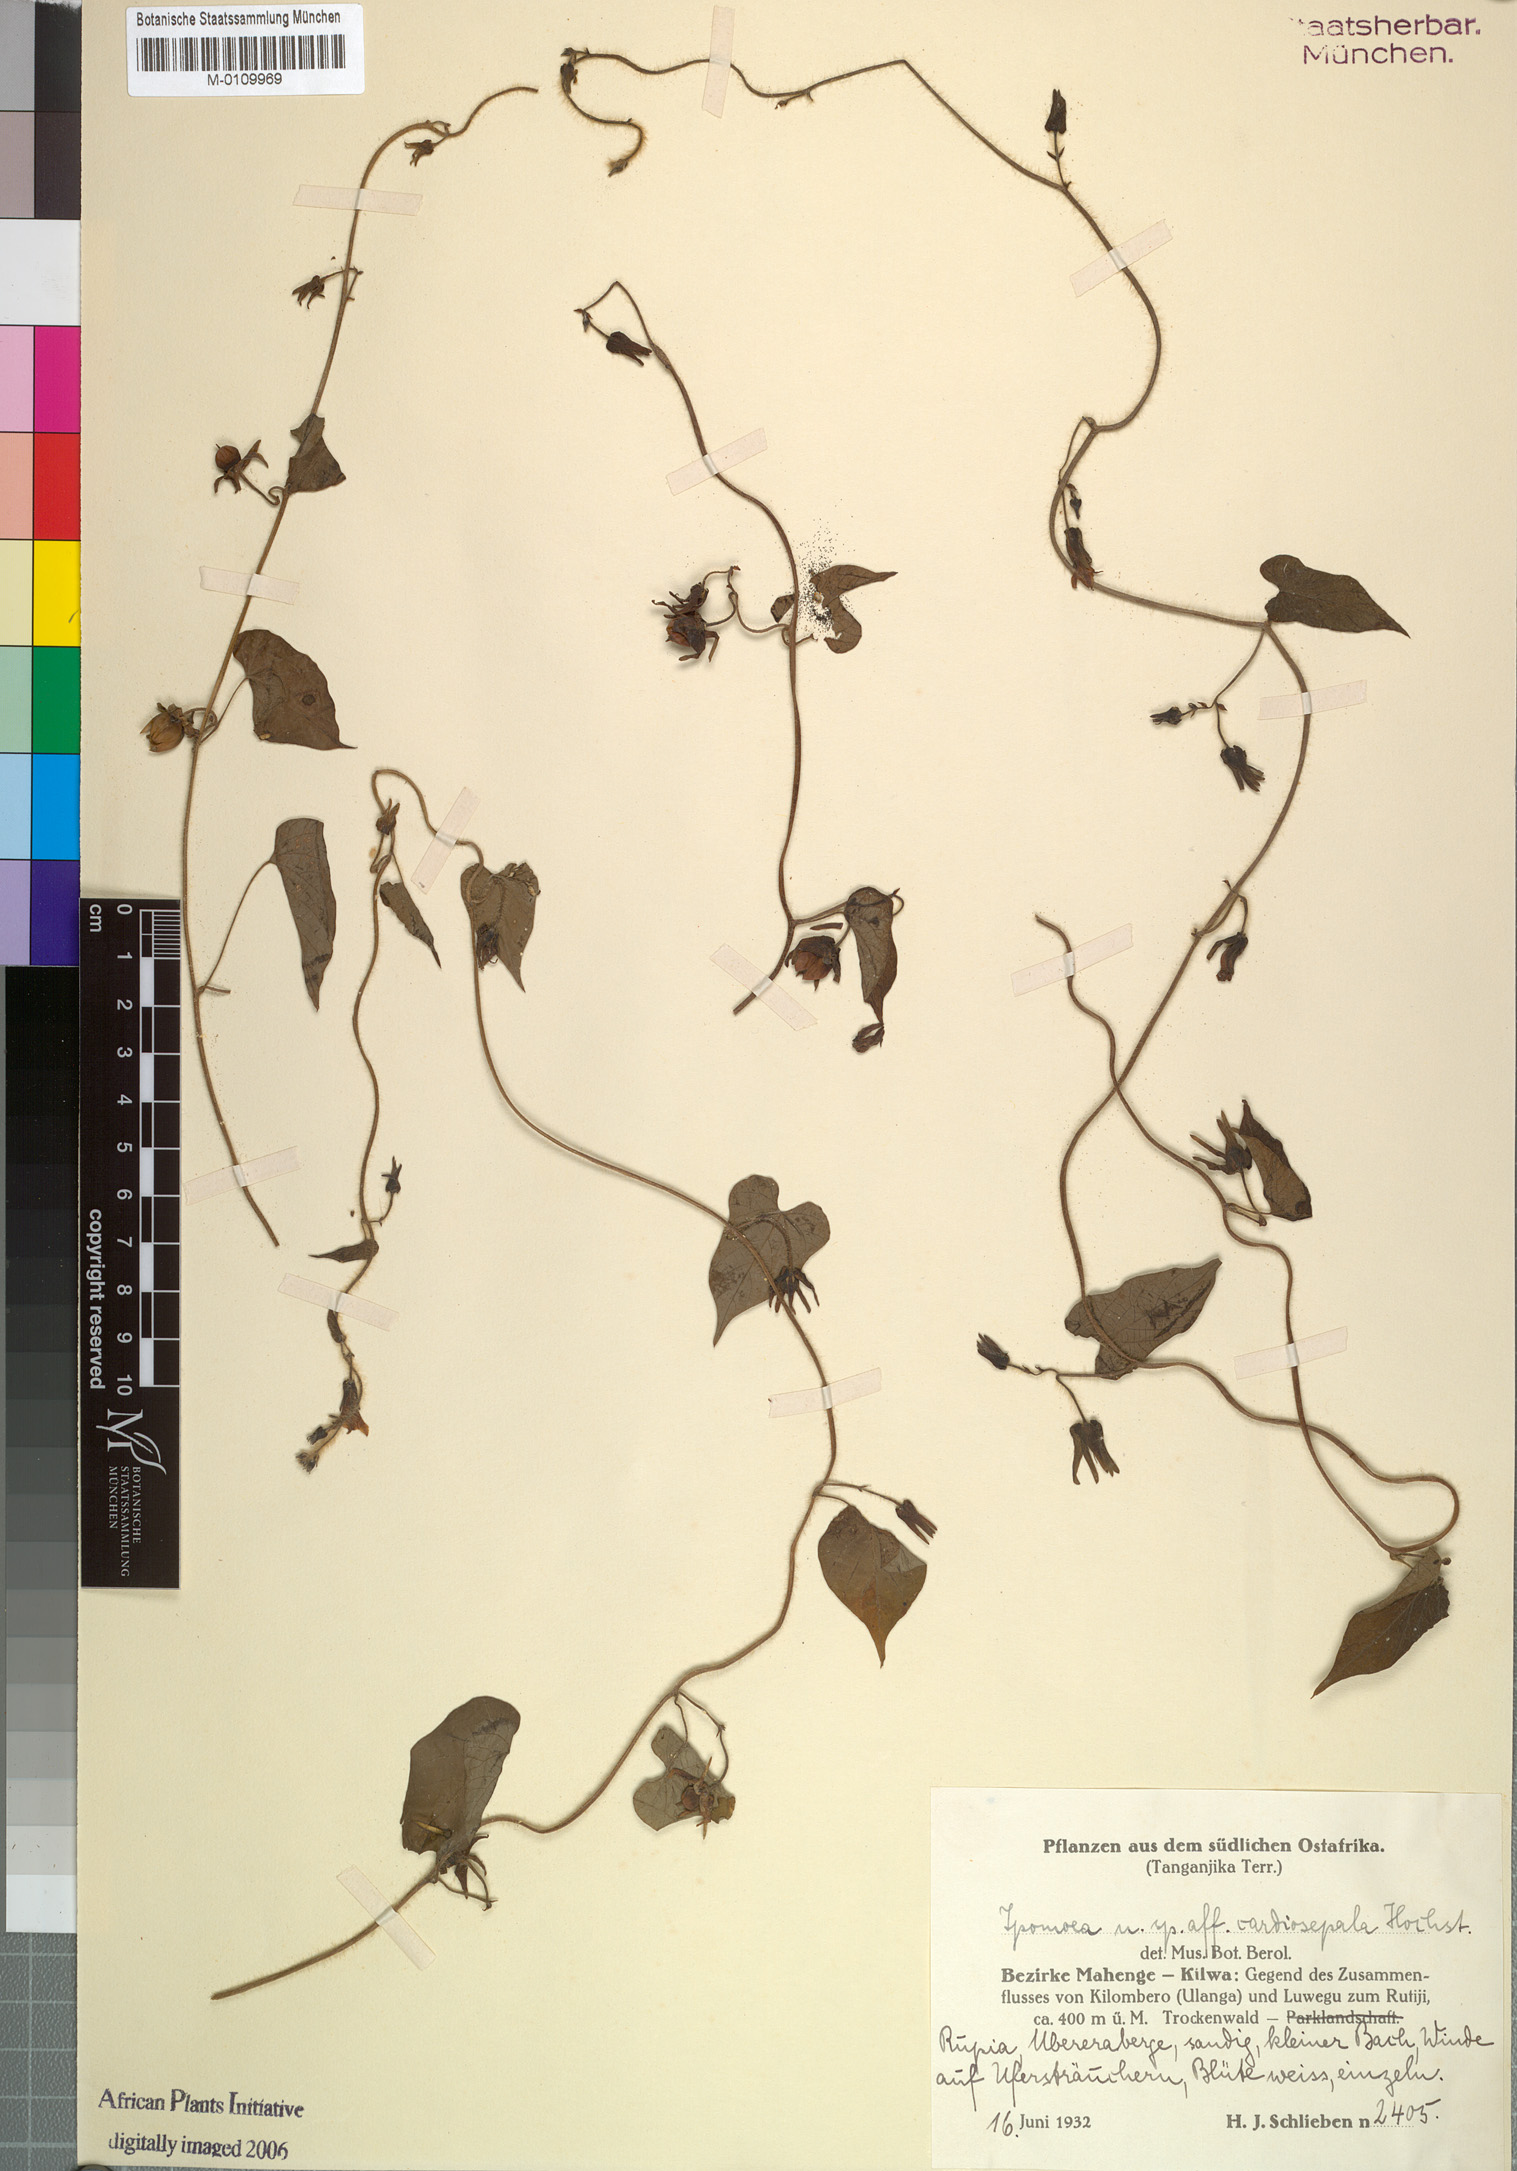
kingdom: Plantae
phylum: Tracheophyta
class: Magnoliopsida
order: Solanales
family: Convolvulaceae
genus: Ipomoea
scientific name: Ipomoea sinensis
